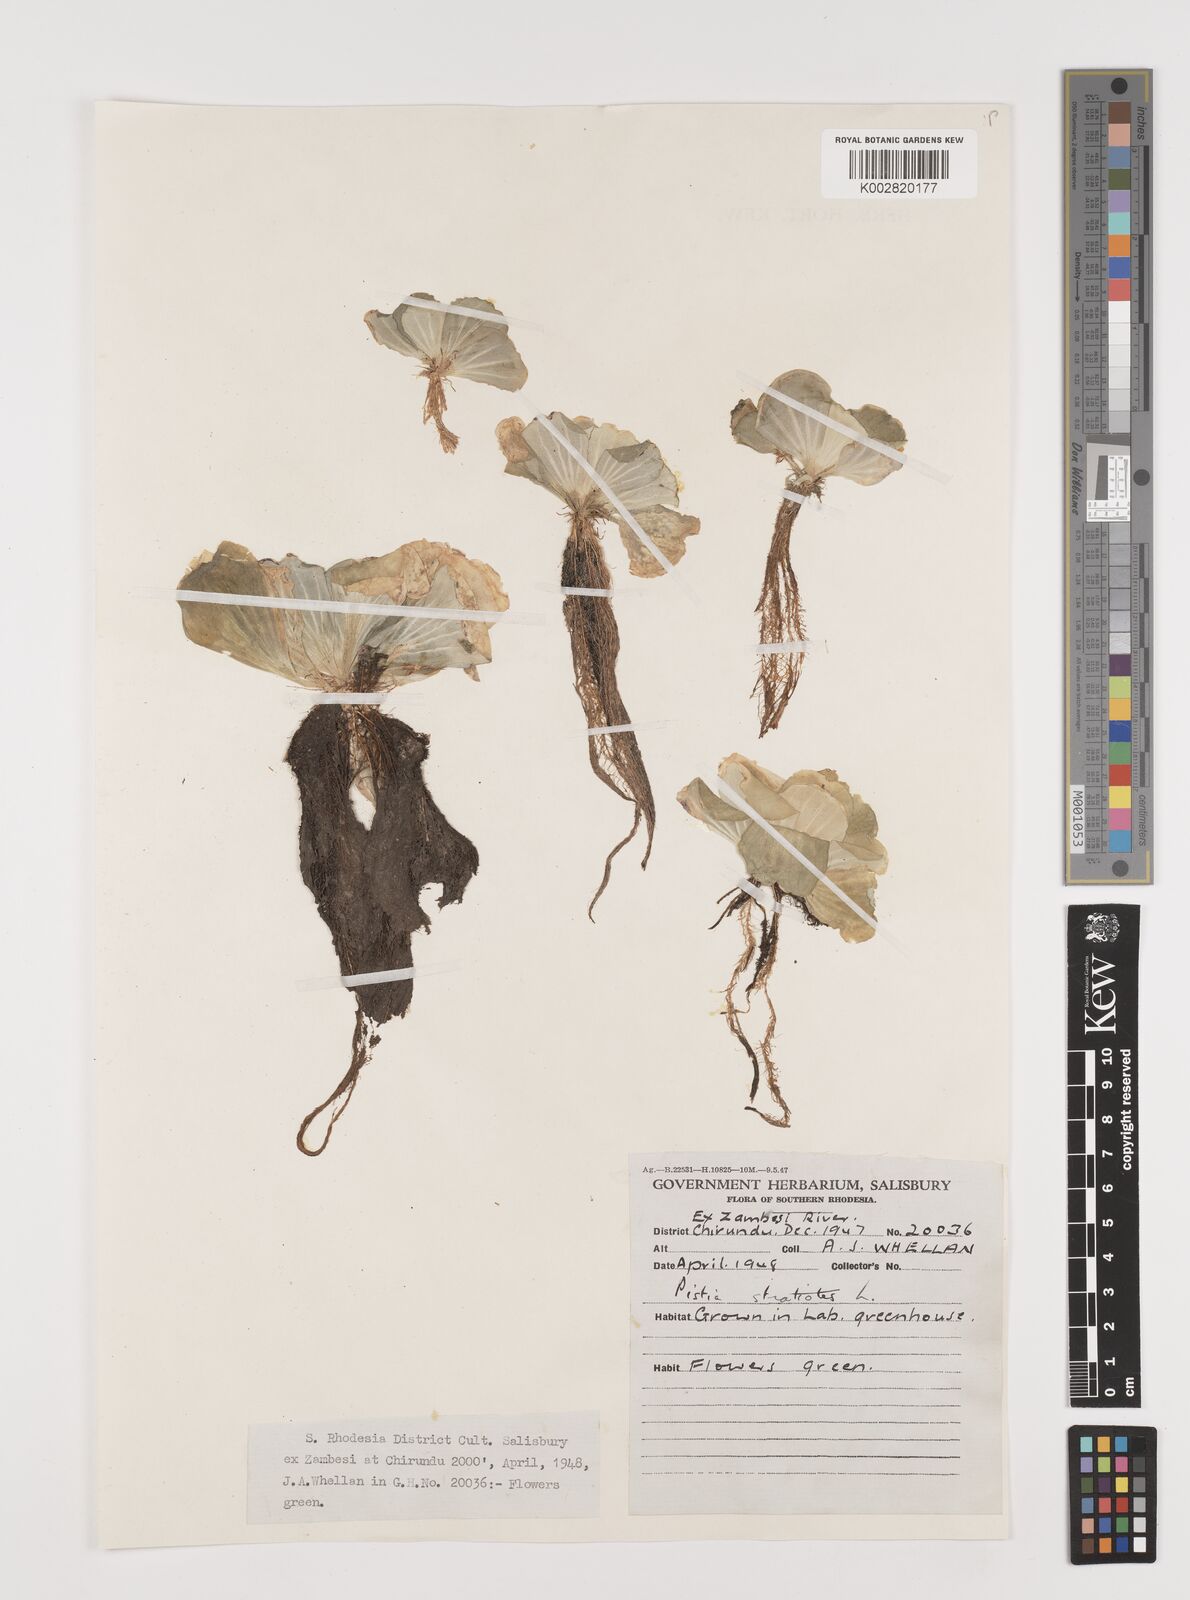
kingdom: Plantae
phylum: Tracheophyta
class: Liliopsida
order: Alismatales
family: Araceae
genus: Pistia
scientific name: Pistia stratiotes
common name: Water lettuce
